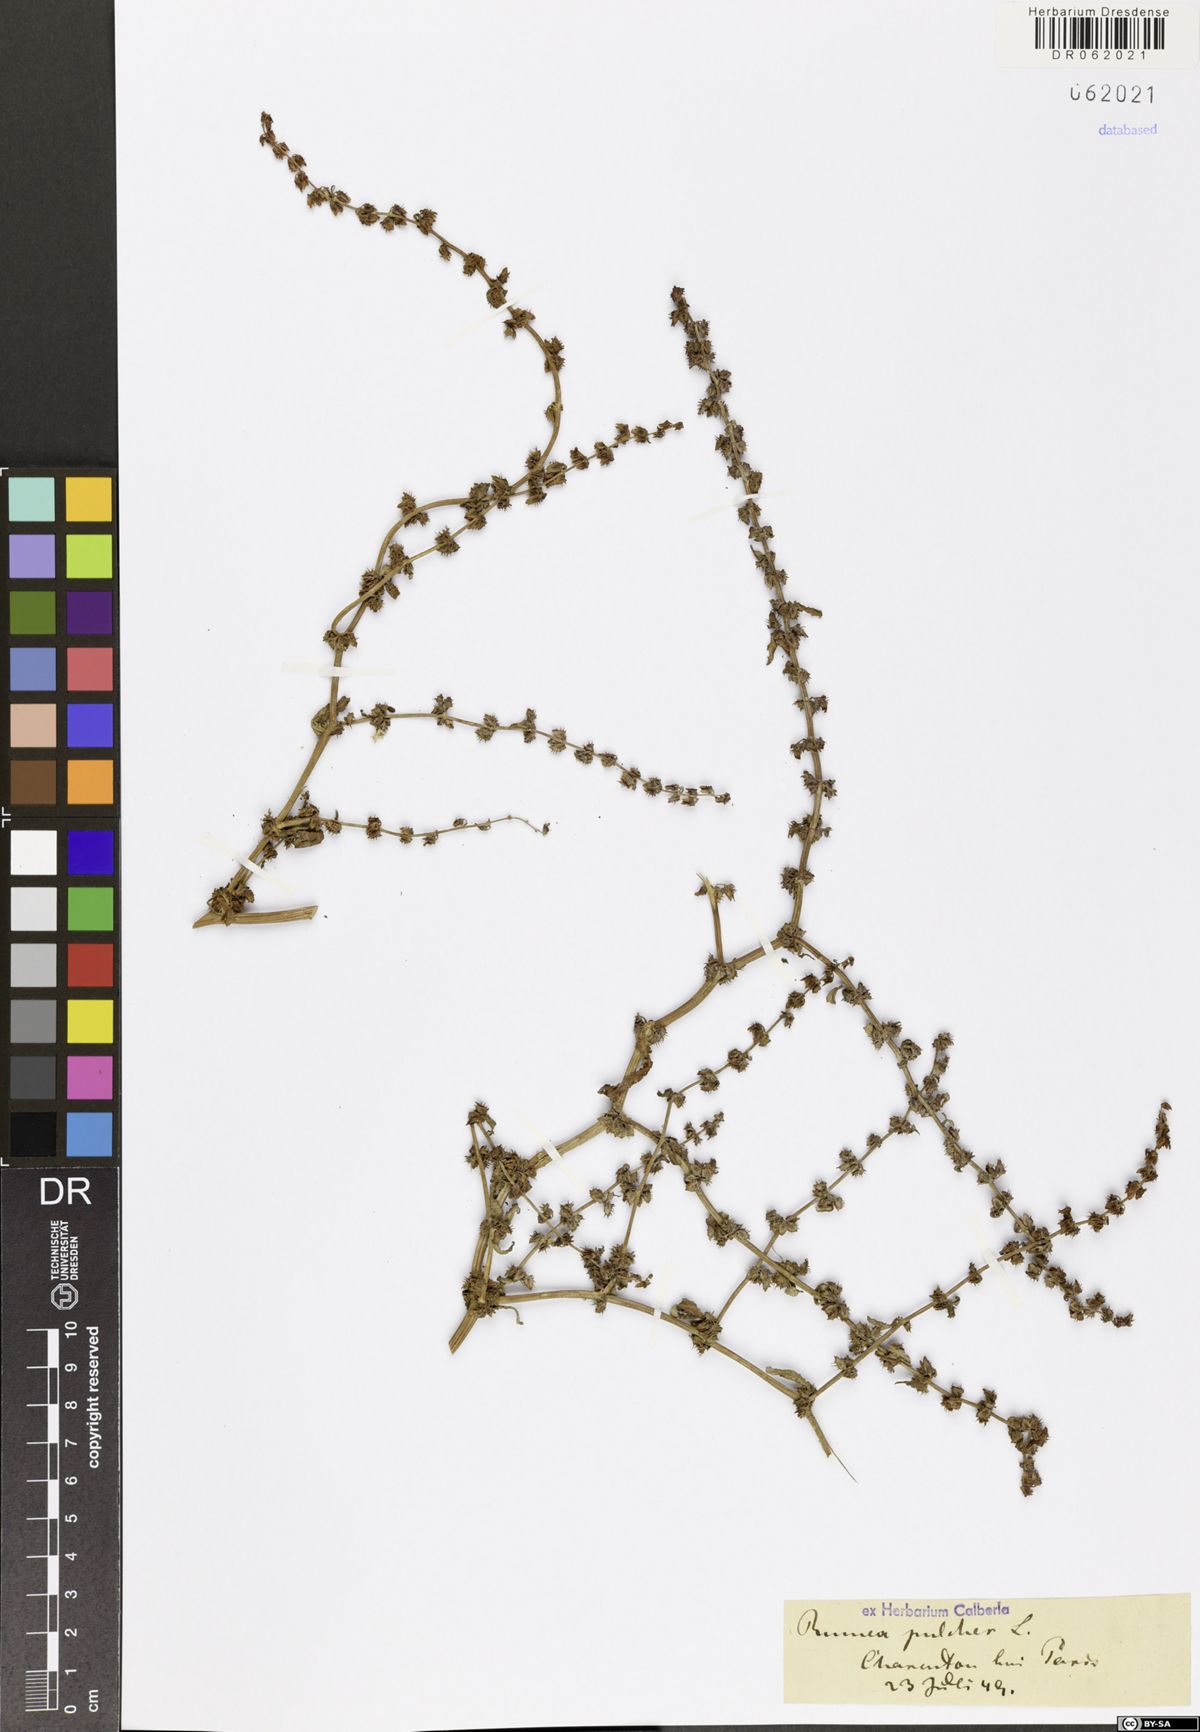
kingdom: Plantae
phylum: Tracheophyta
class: Magnoliopsida
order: Caryophyllales
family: Polygonaceae
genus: Rumex
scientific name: Rumex pulcher
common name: Fiddle dock
